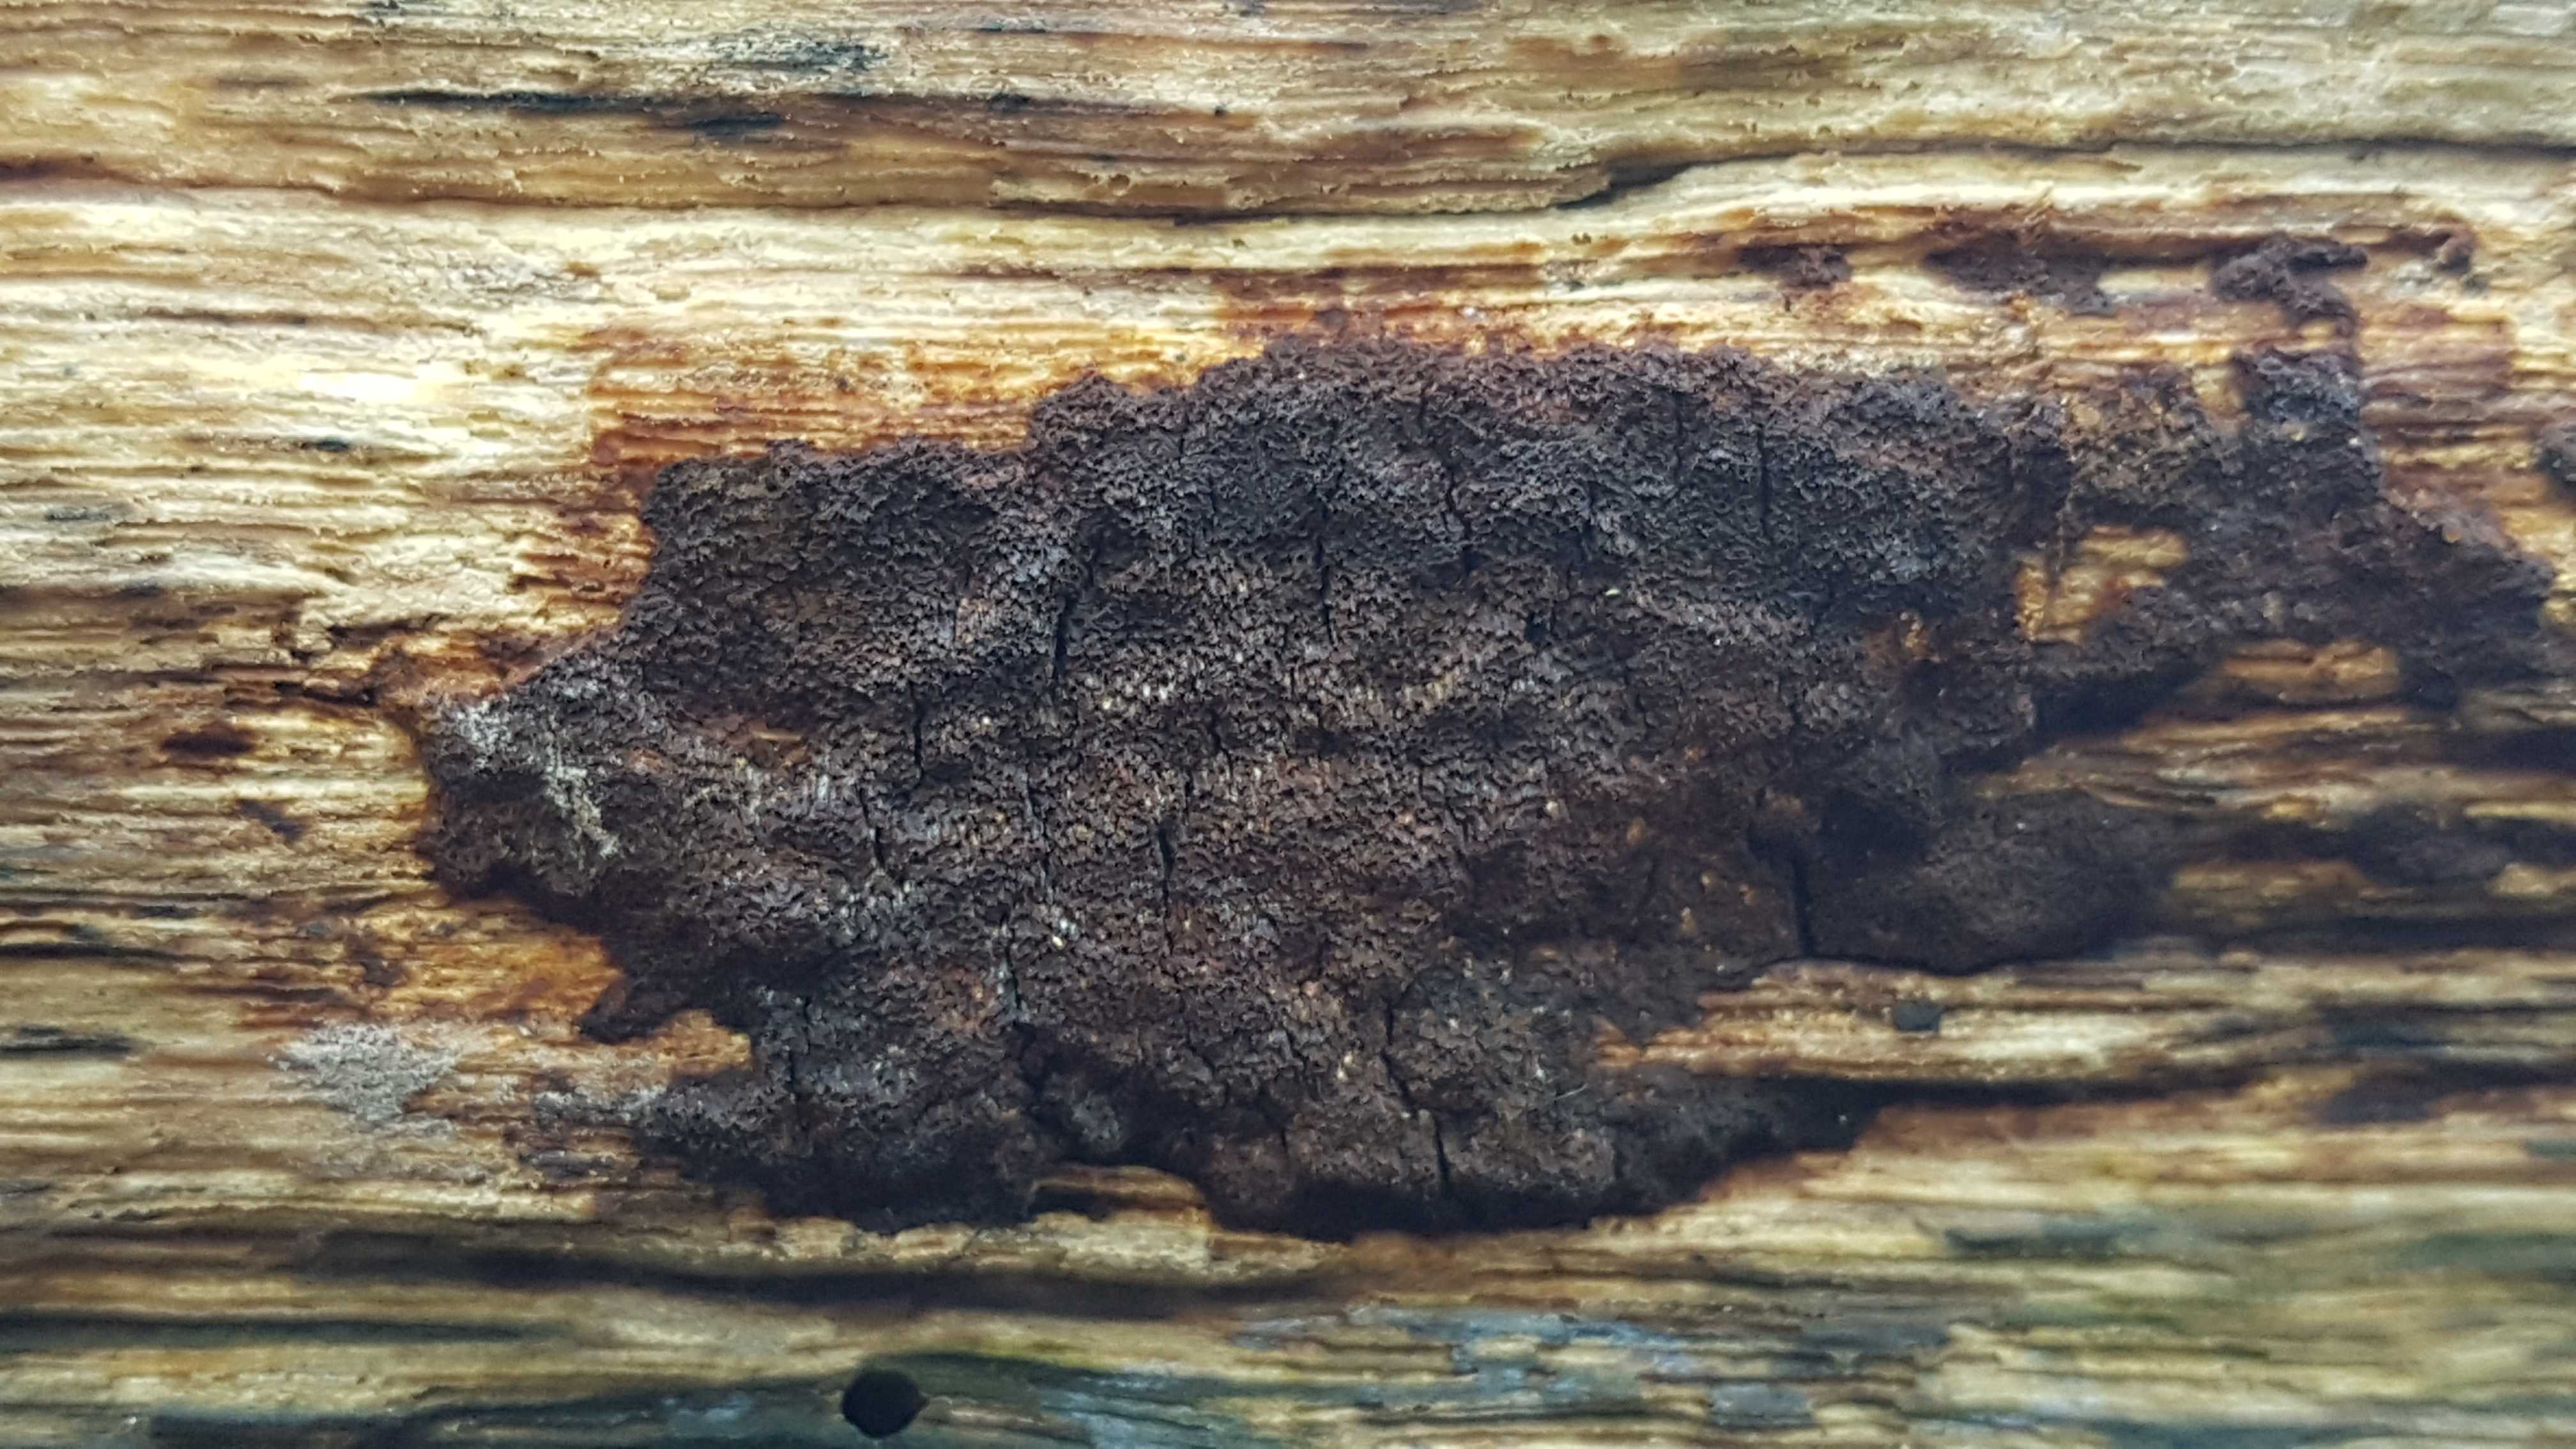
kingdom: Fungi
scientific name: Fungi
